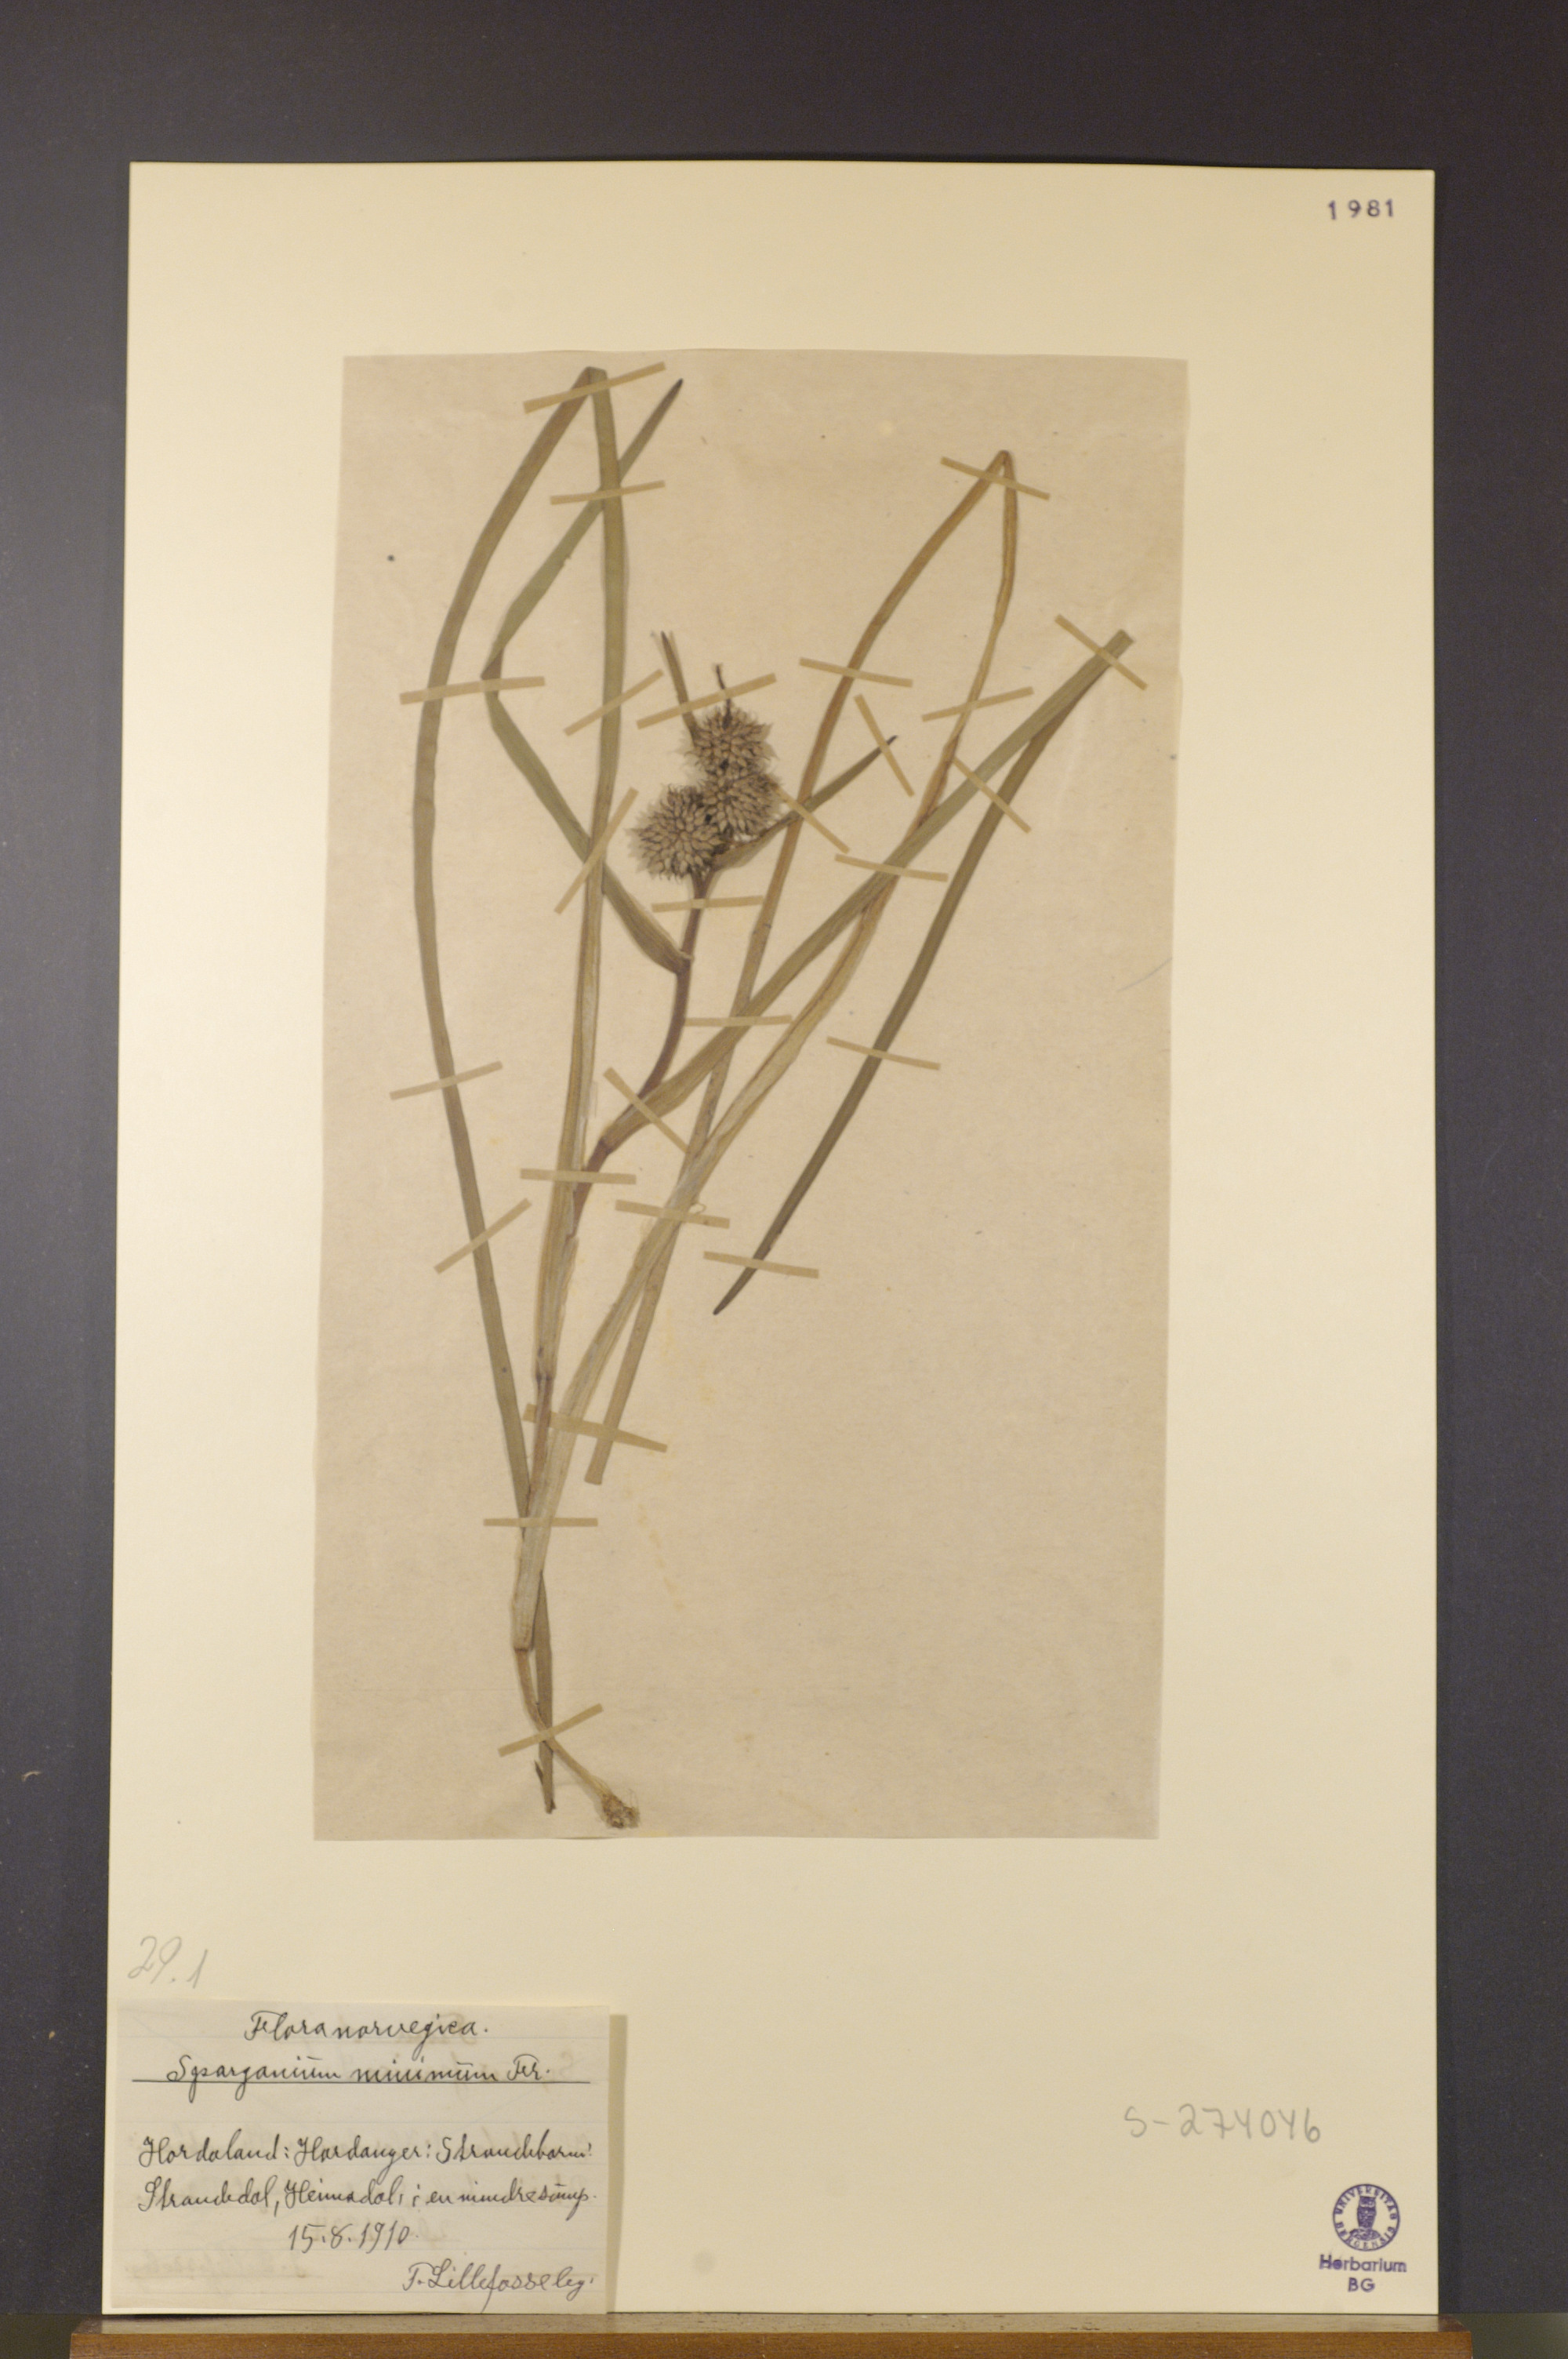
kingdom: Plantae
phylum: Tracheophyta
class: Liliopsida
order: Poales
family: Typhaceae
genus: Sparganium
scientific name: Sparganium natans
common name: Least bur-reed
